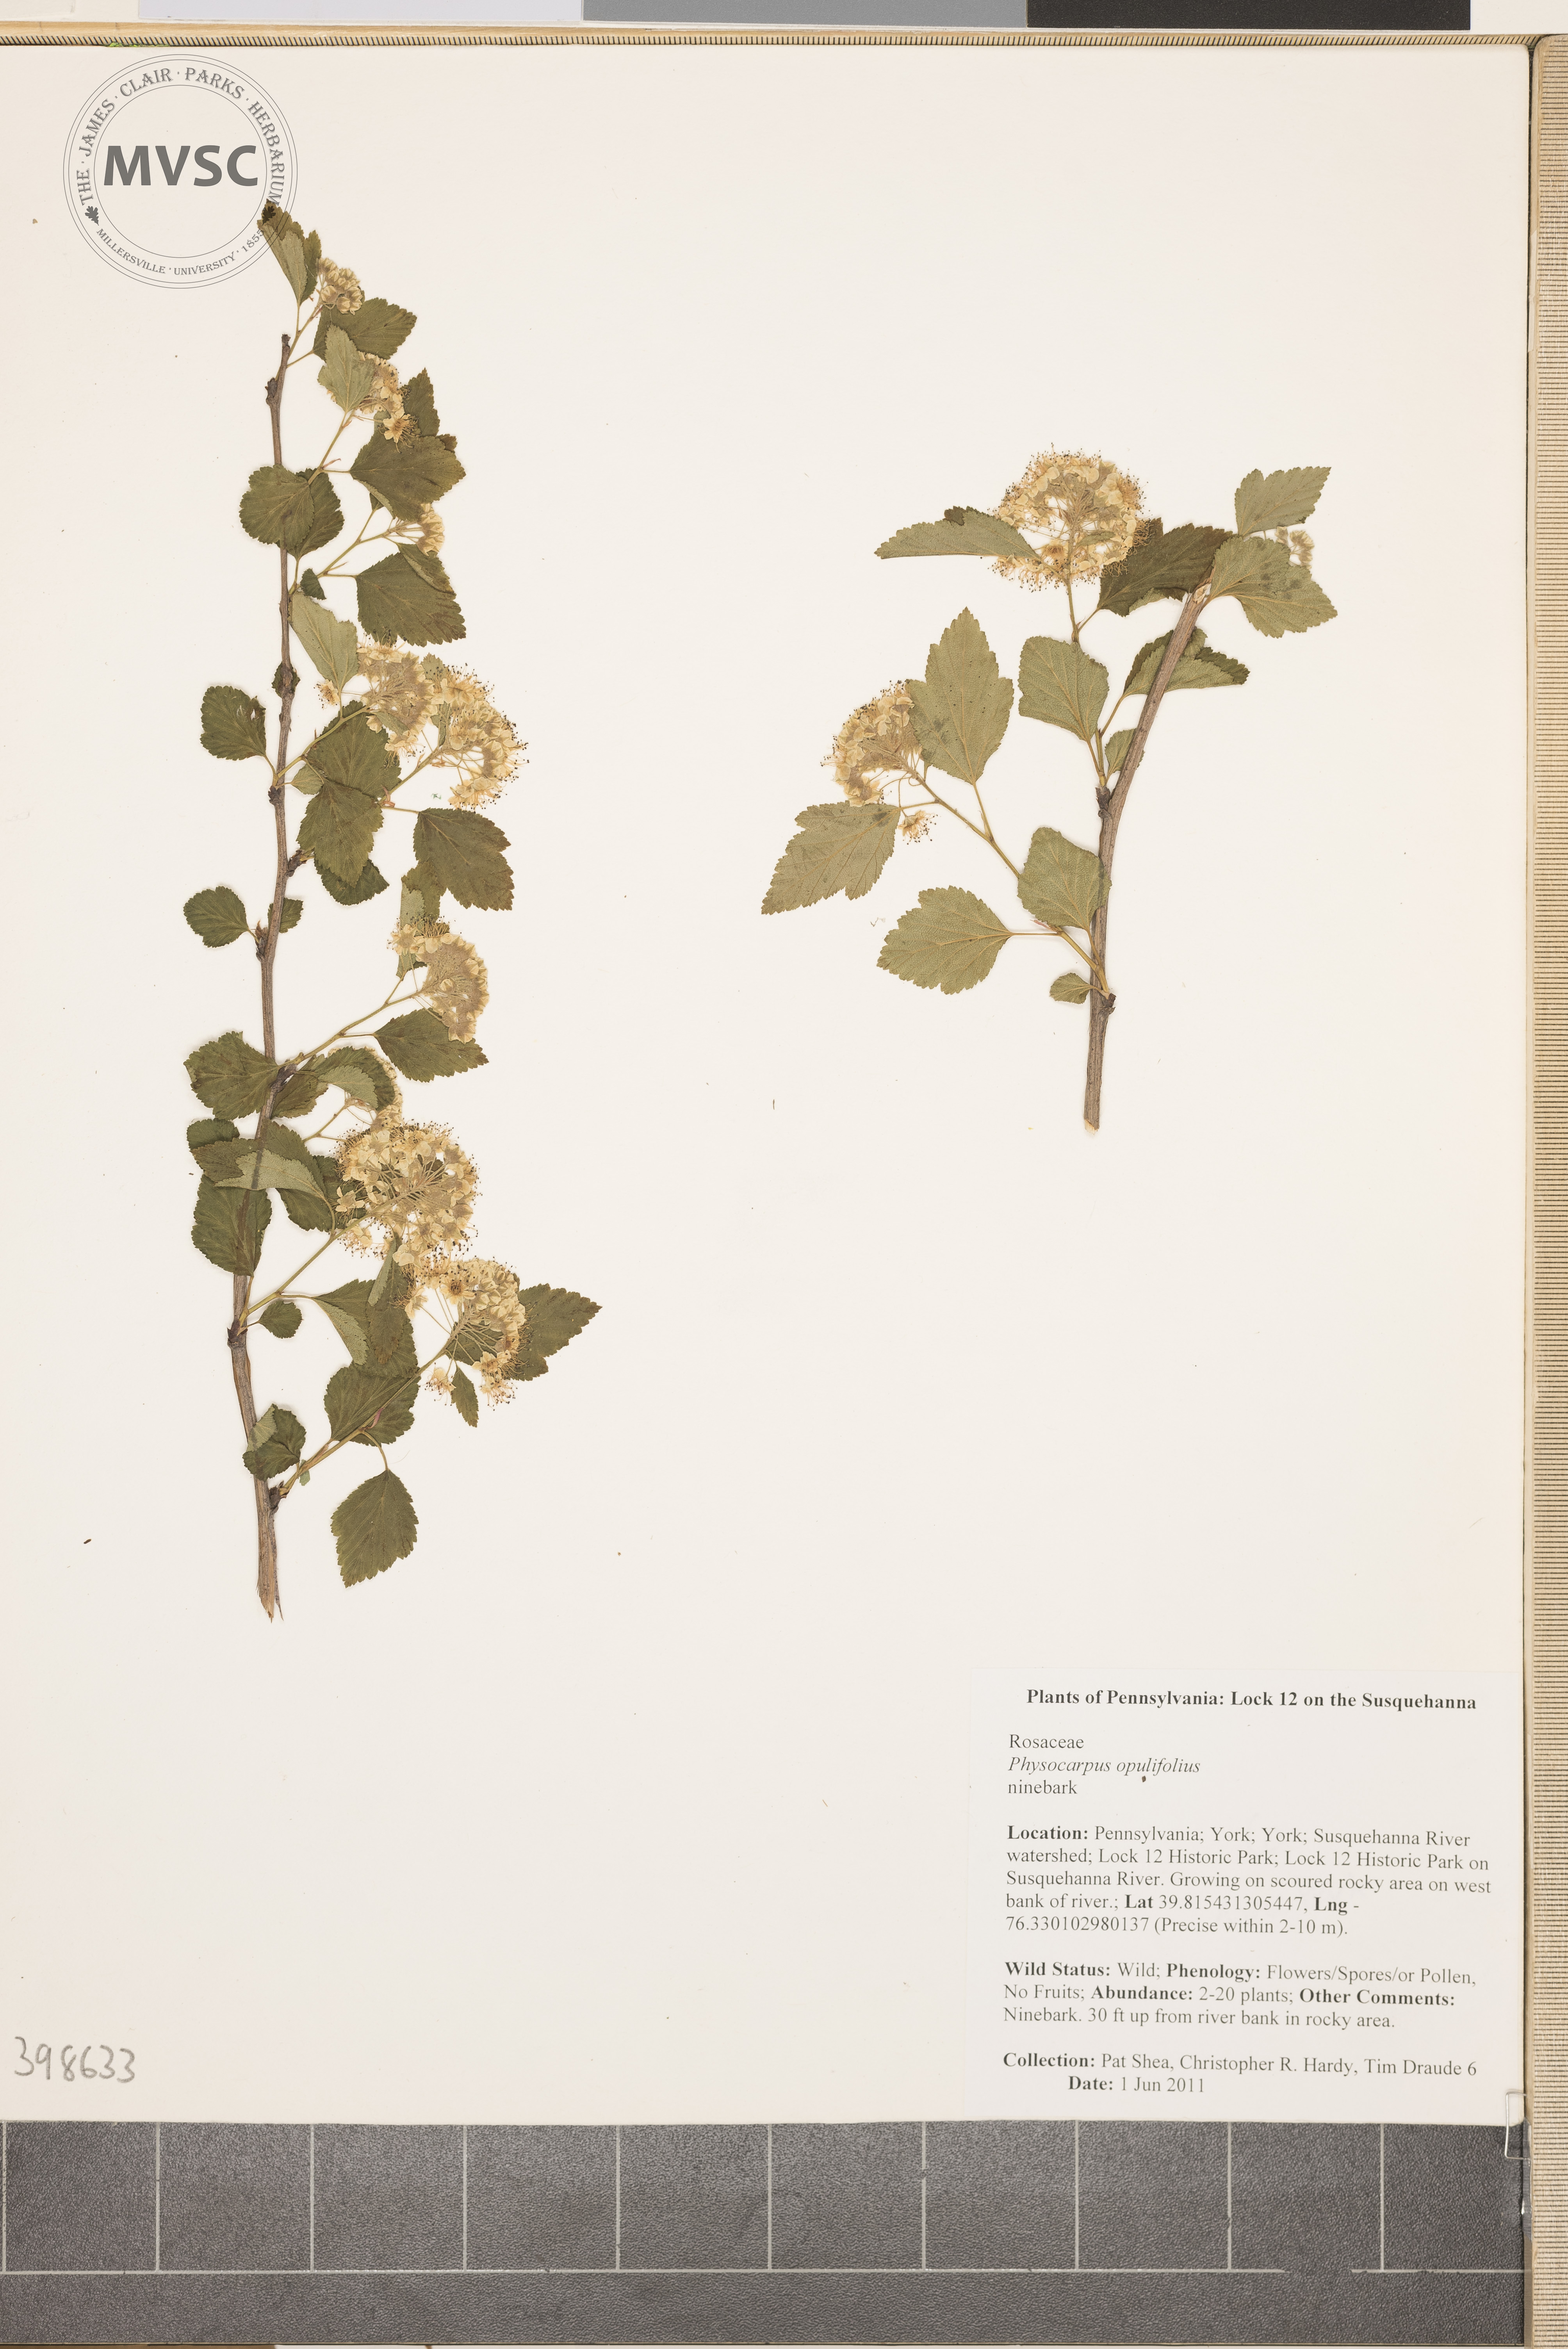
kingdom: Plantae
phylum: Tracheophyta
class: Magnoliopsida
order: Rosales
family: Rosaceae
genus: Physocarpus
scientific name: Physocarpus opulifolius
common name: Ninebark
